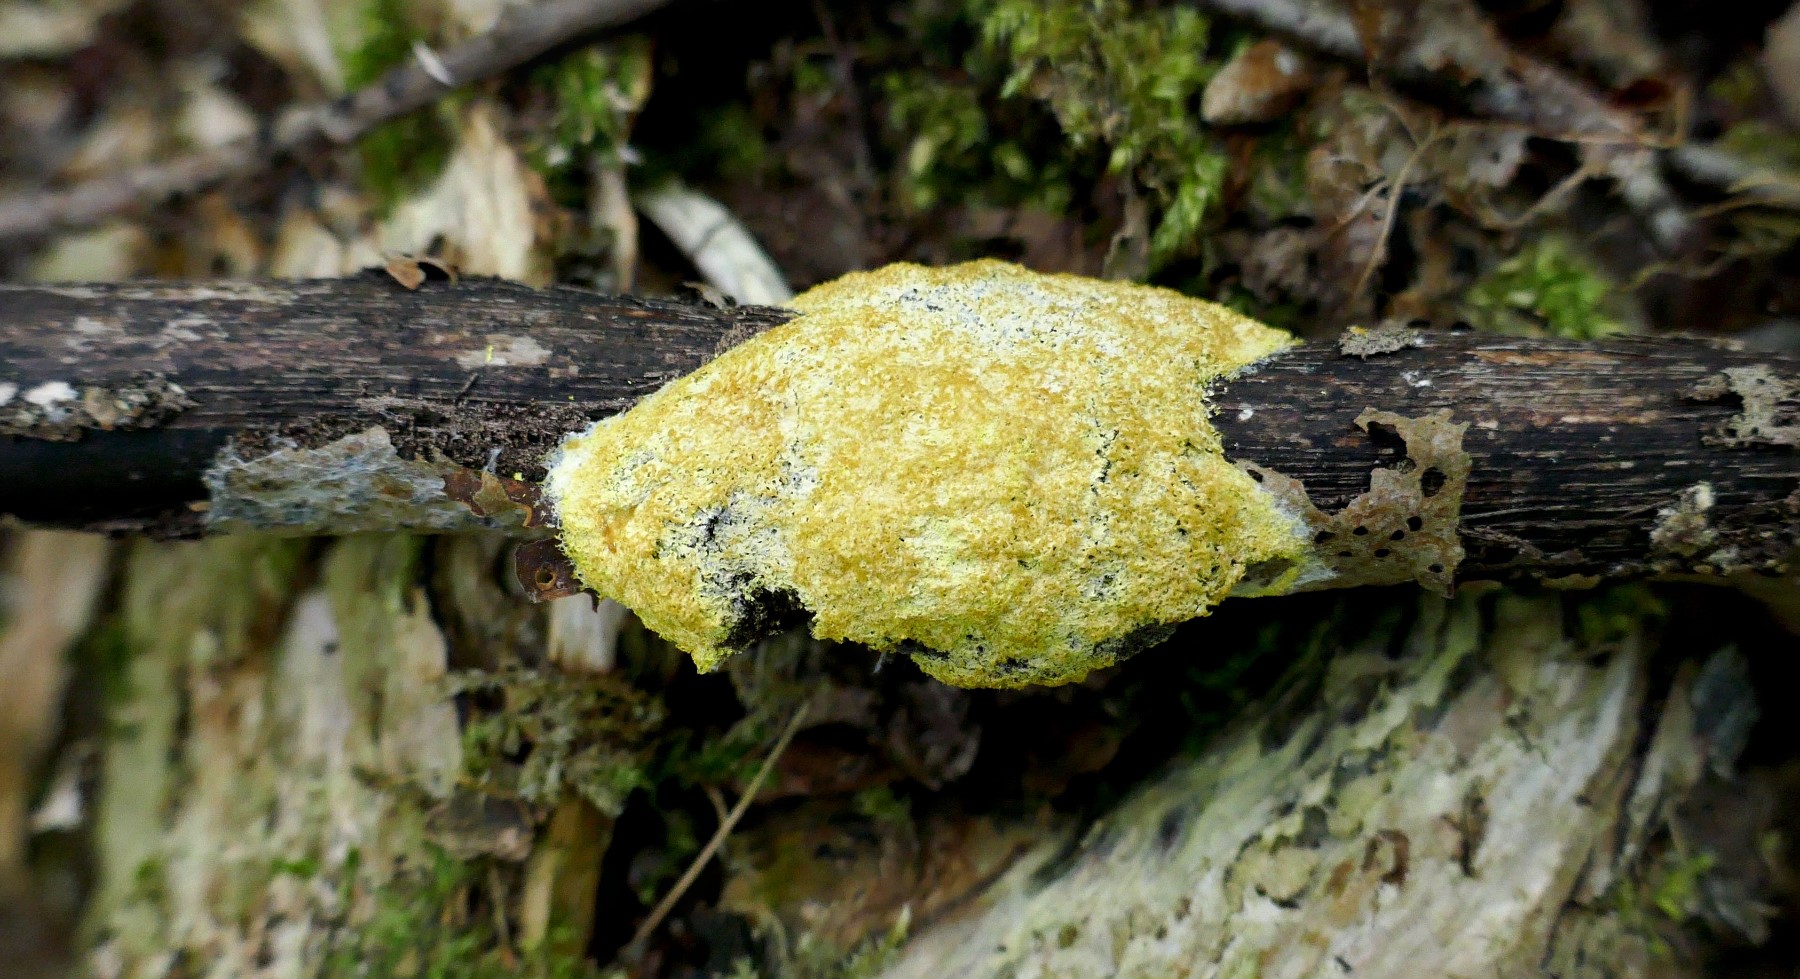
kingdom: Protozoa
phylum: Mycetozoa
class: Myxomycetes
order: Physarales
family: Physaraceae
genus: Fuligo
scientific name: Fuligo septica
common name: gul troldsmør
